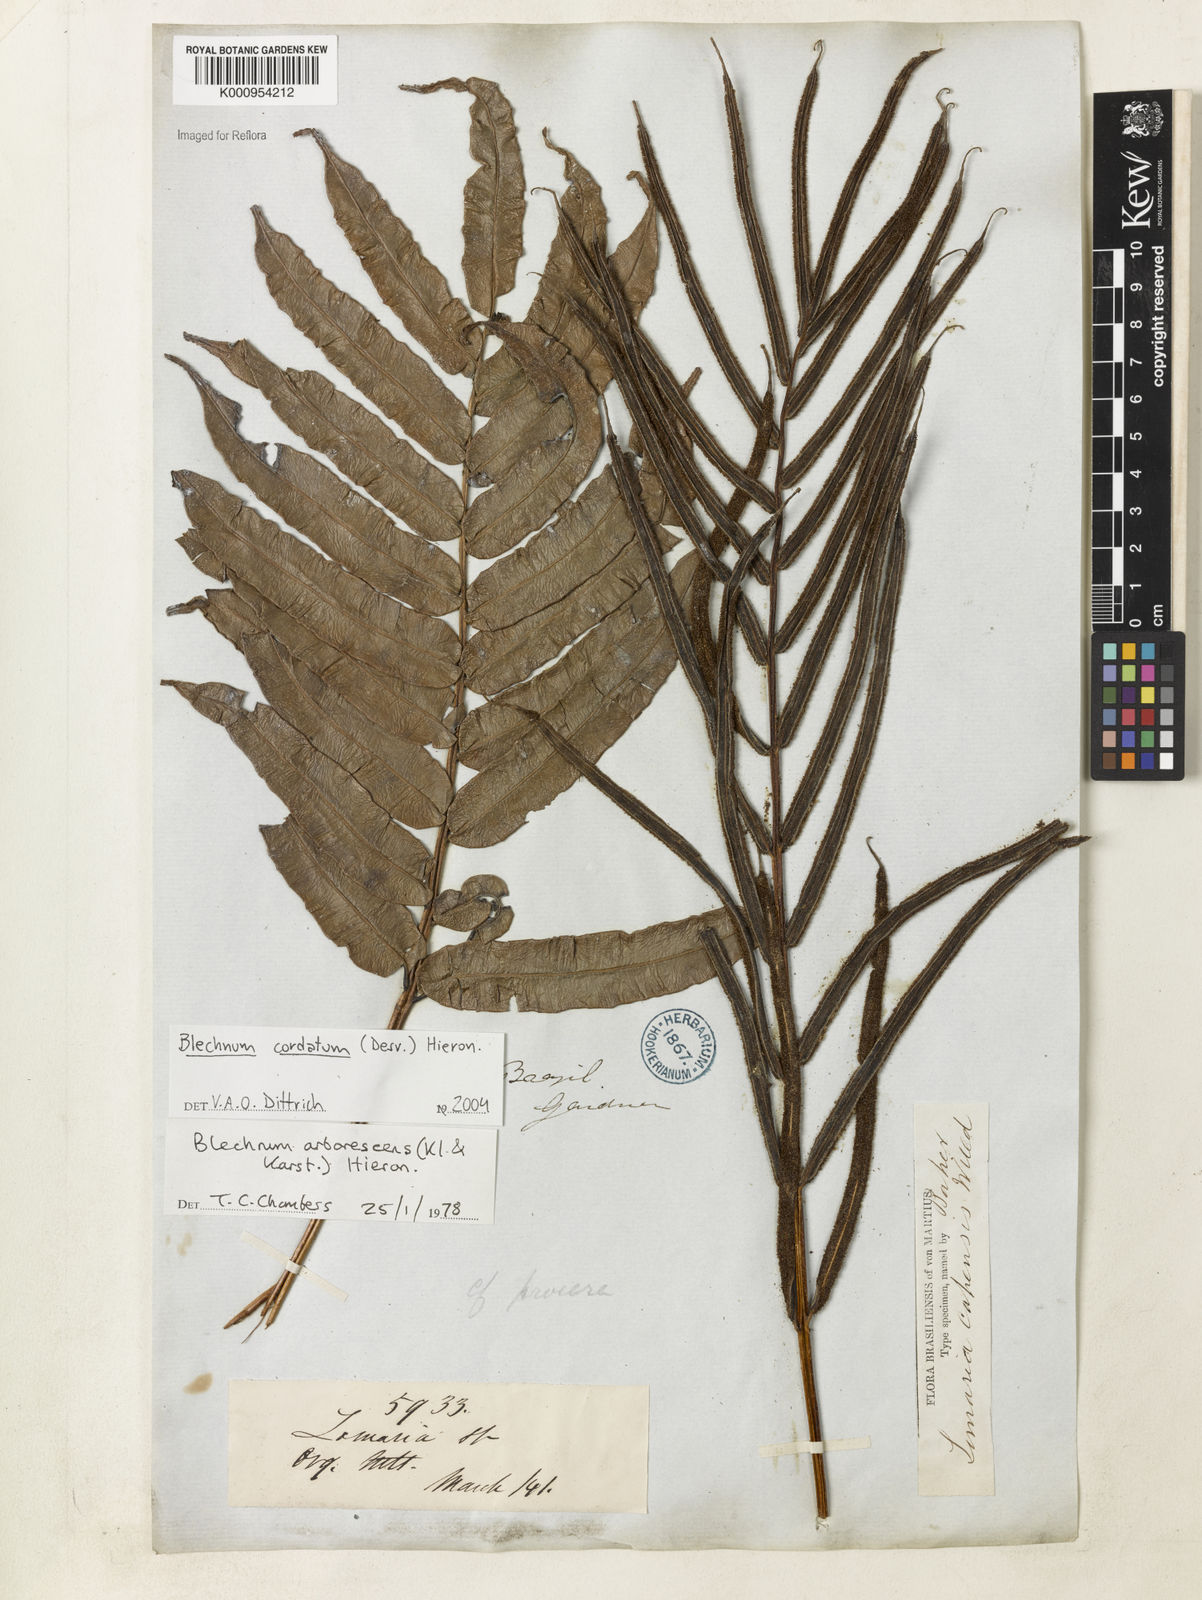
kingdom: Plantae
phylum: Tracheophyta
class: Polypodiopsida
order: Polypodiales
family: Blechnaceae
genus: Parablechnum
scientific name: Parablechnum cordatum
